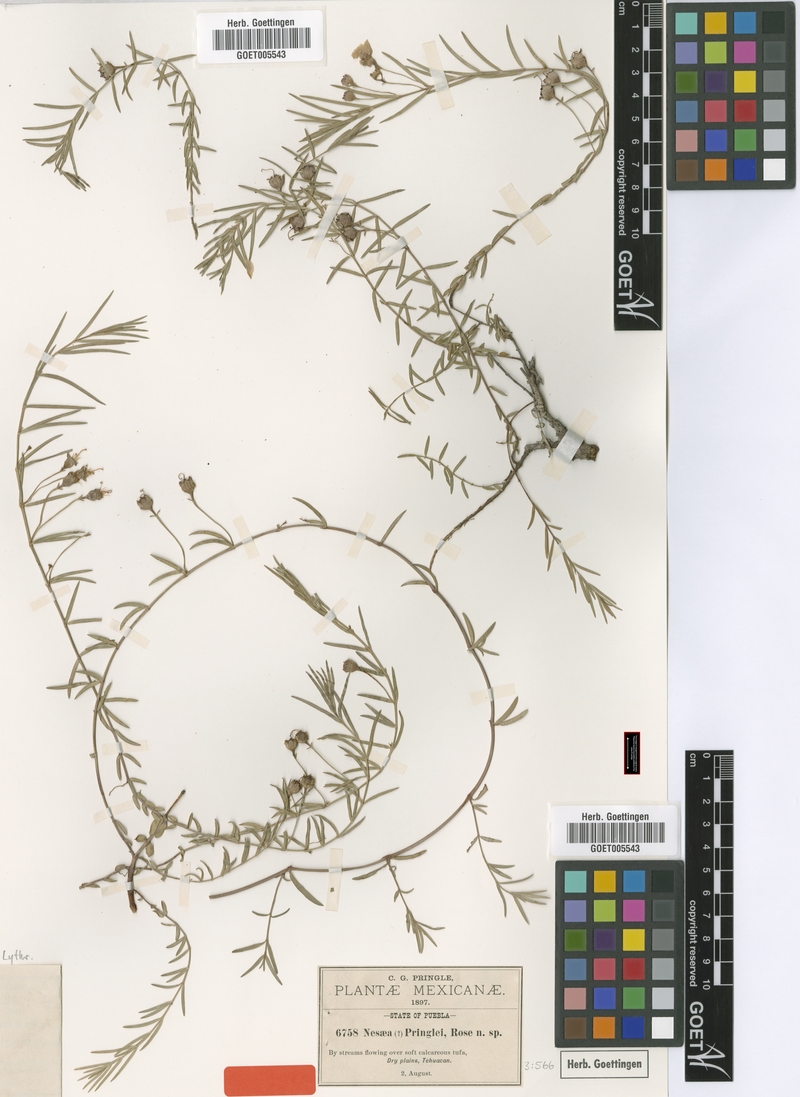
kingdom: Plantae
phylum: Tracheophyta
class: Magnoliopsida
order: Myrtales
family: Lythraceae
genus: Ammannia
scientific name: Ammannia pringlei
